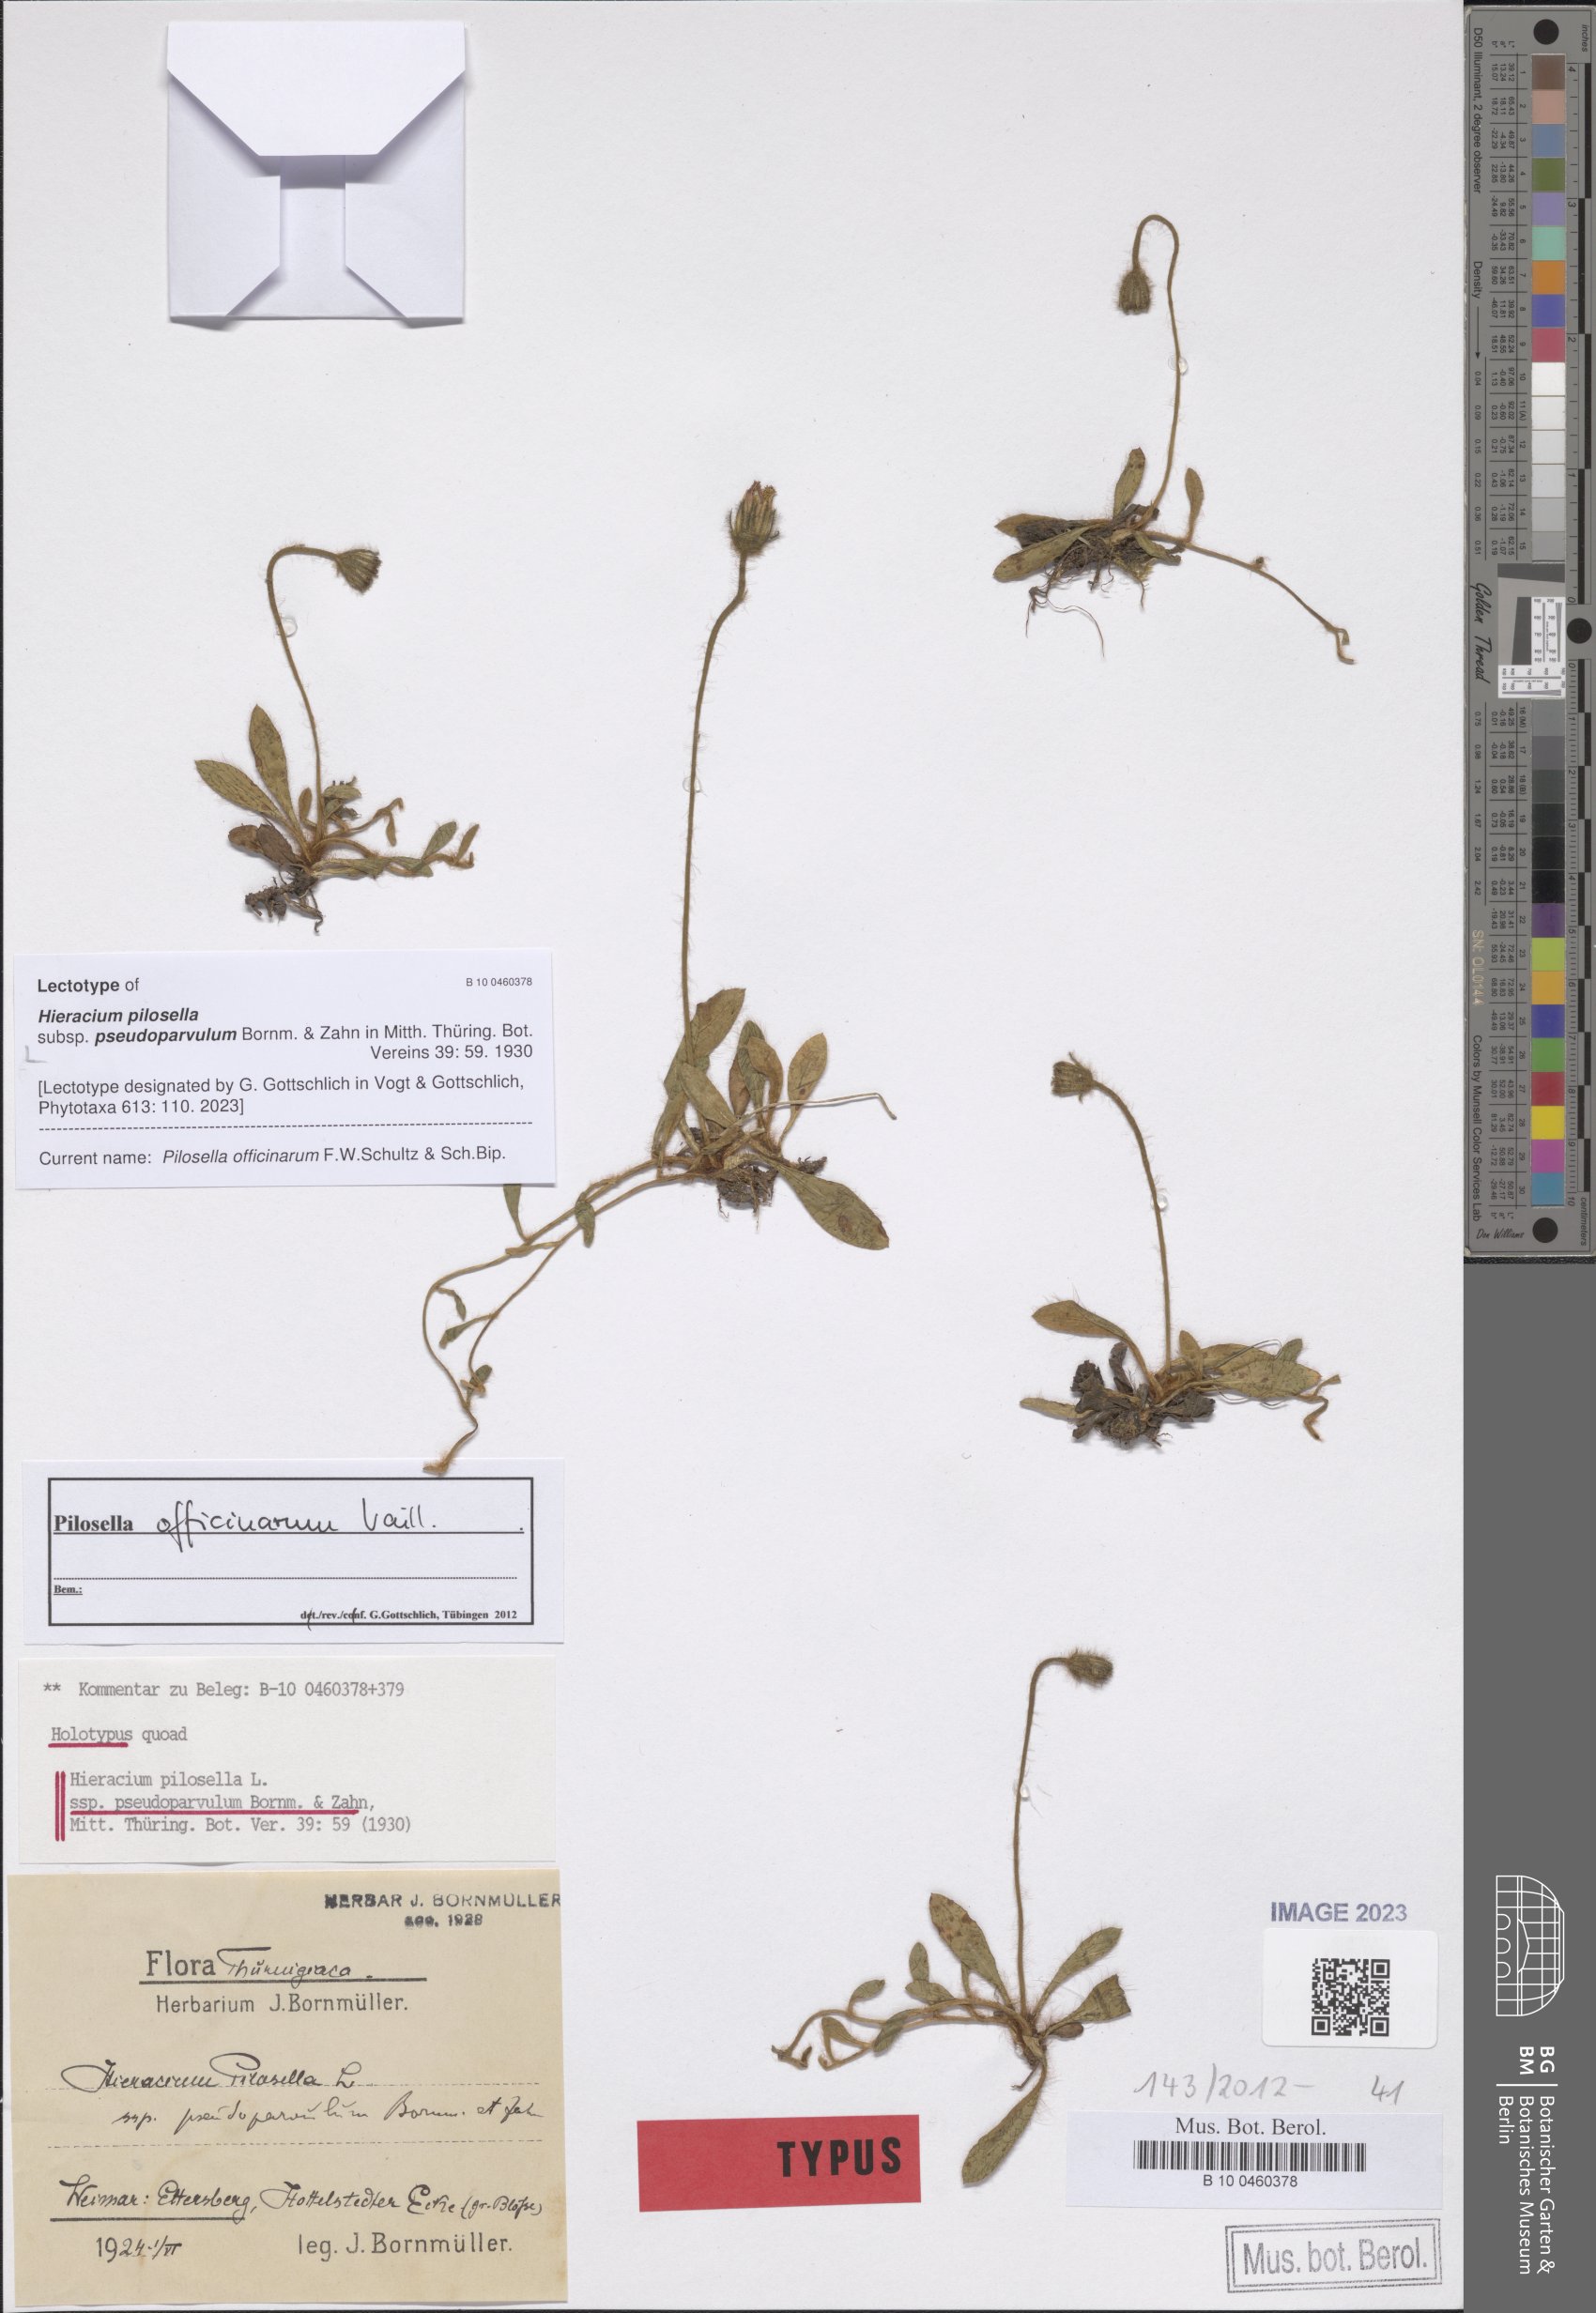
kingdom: Plantae
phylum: Tracheophyta
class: Magnoliopsida
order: Asterales
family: Asteraceae
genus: Pilosella
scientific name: Pilosella officinarum
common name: Mouse-ear hawkweed
